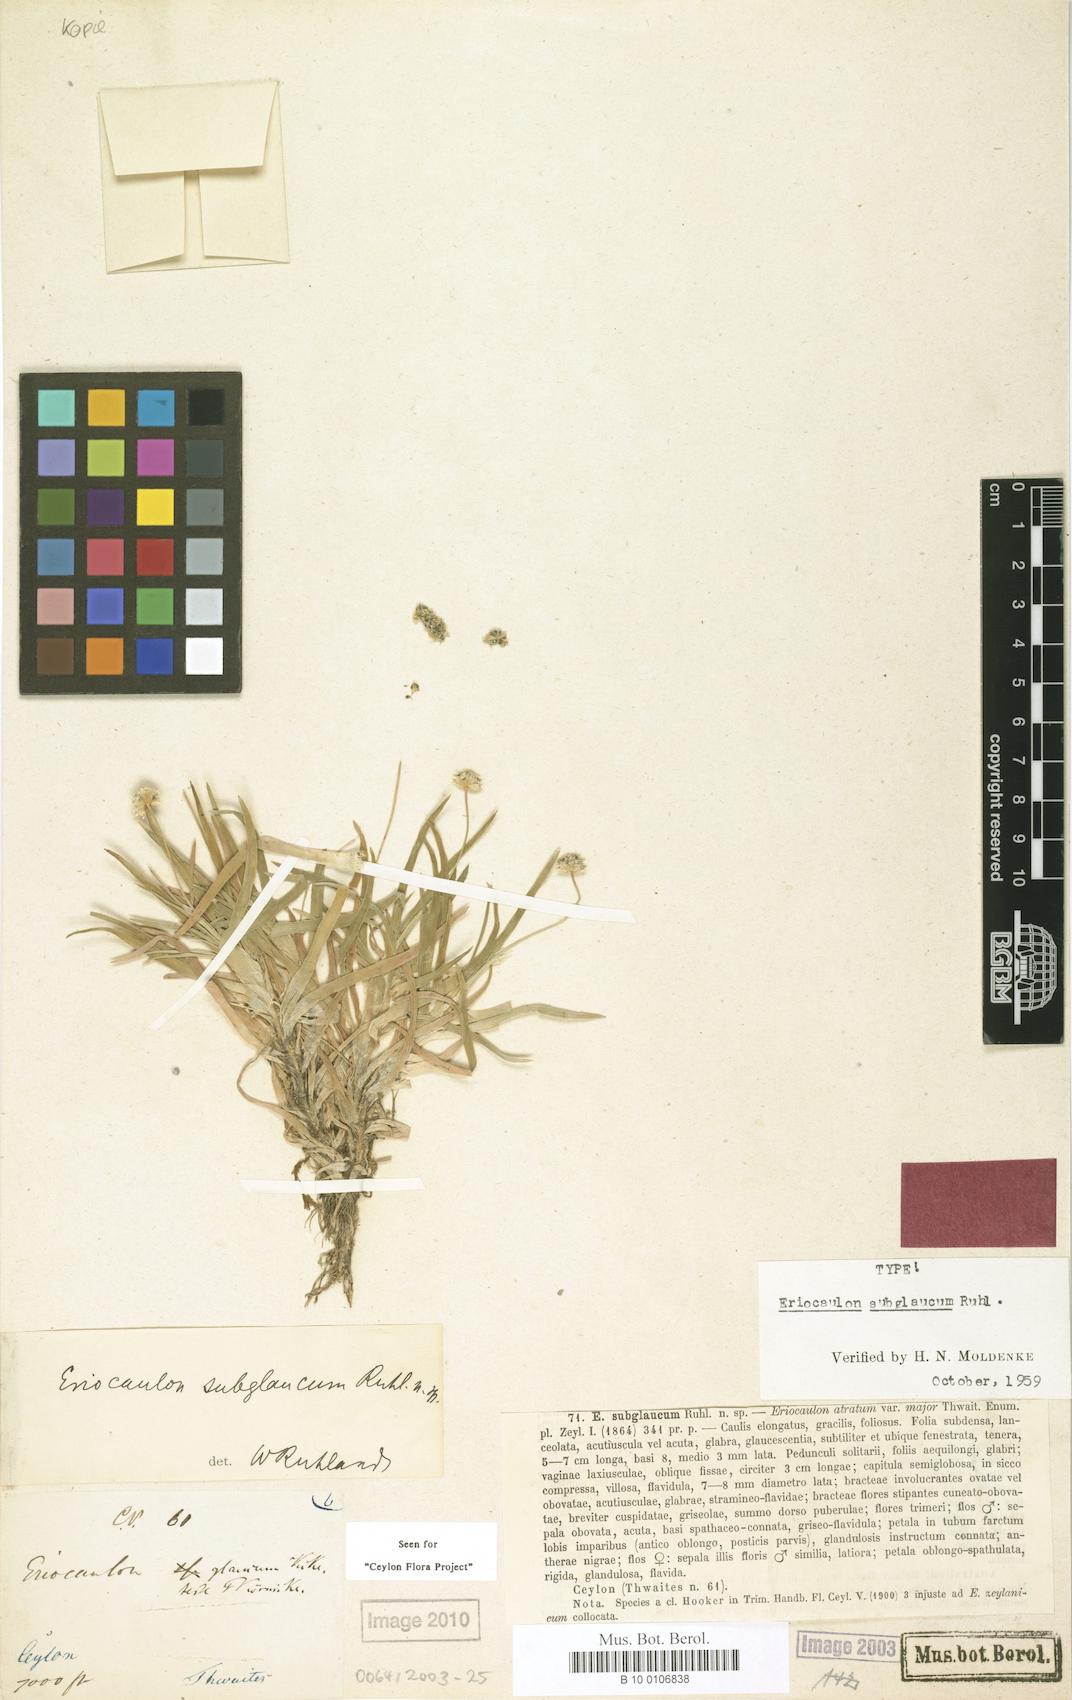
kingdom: Plantae
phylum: Tracheophyta
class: Liliopsida
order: Poales
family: Eriocaulaceae
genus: Eriocaulon
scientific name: Eriocaulon subglaucum
